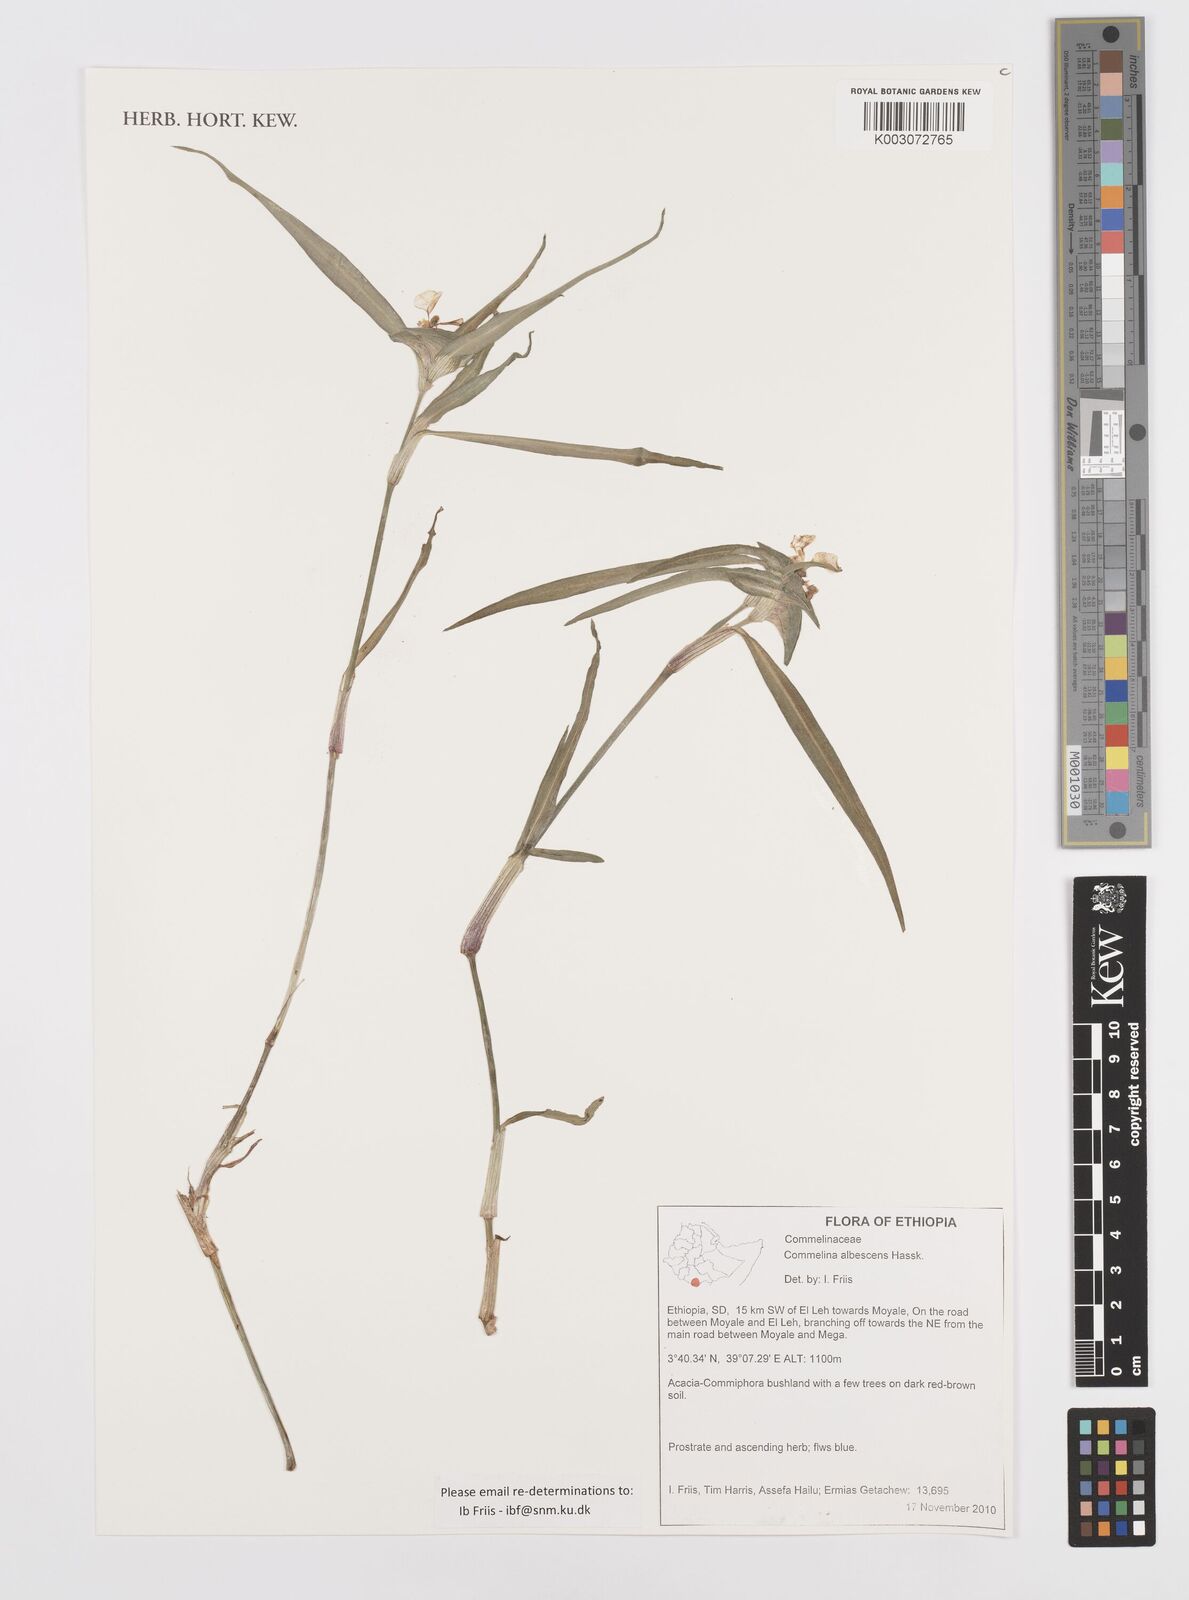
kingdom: Plantae
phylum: Tracheophyta
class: Liliopsida
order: Commelinales
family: Commelinaceae
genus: Commelina
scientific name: Commelina albescens
